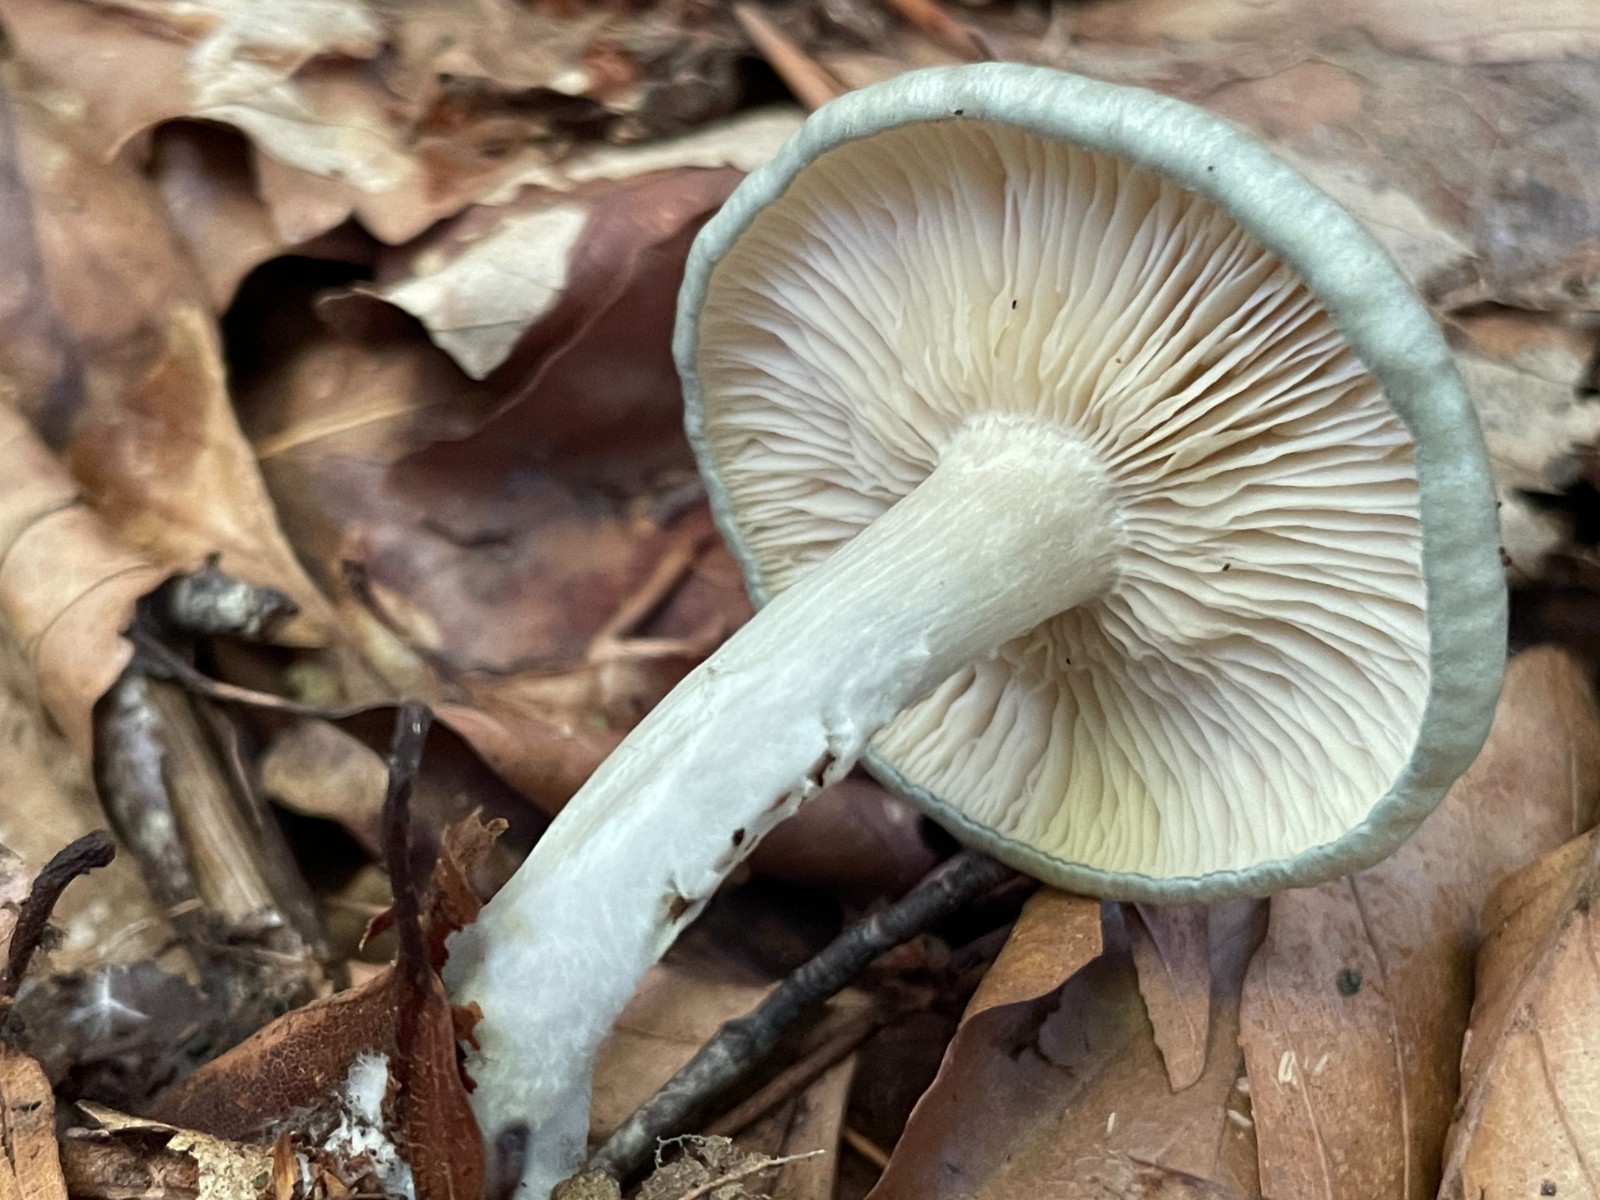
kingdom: Fungi
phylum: Basidiomycota
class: Agaricomycetes
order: Agaricales
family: Tricholomataceae
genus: Clitocybe
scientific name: Clitocybe odora
